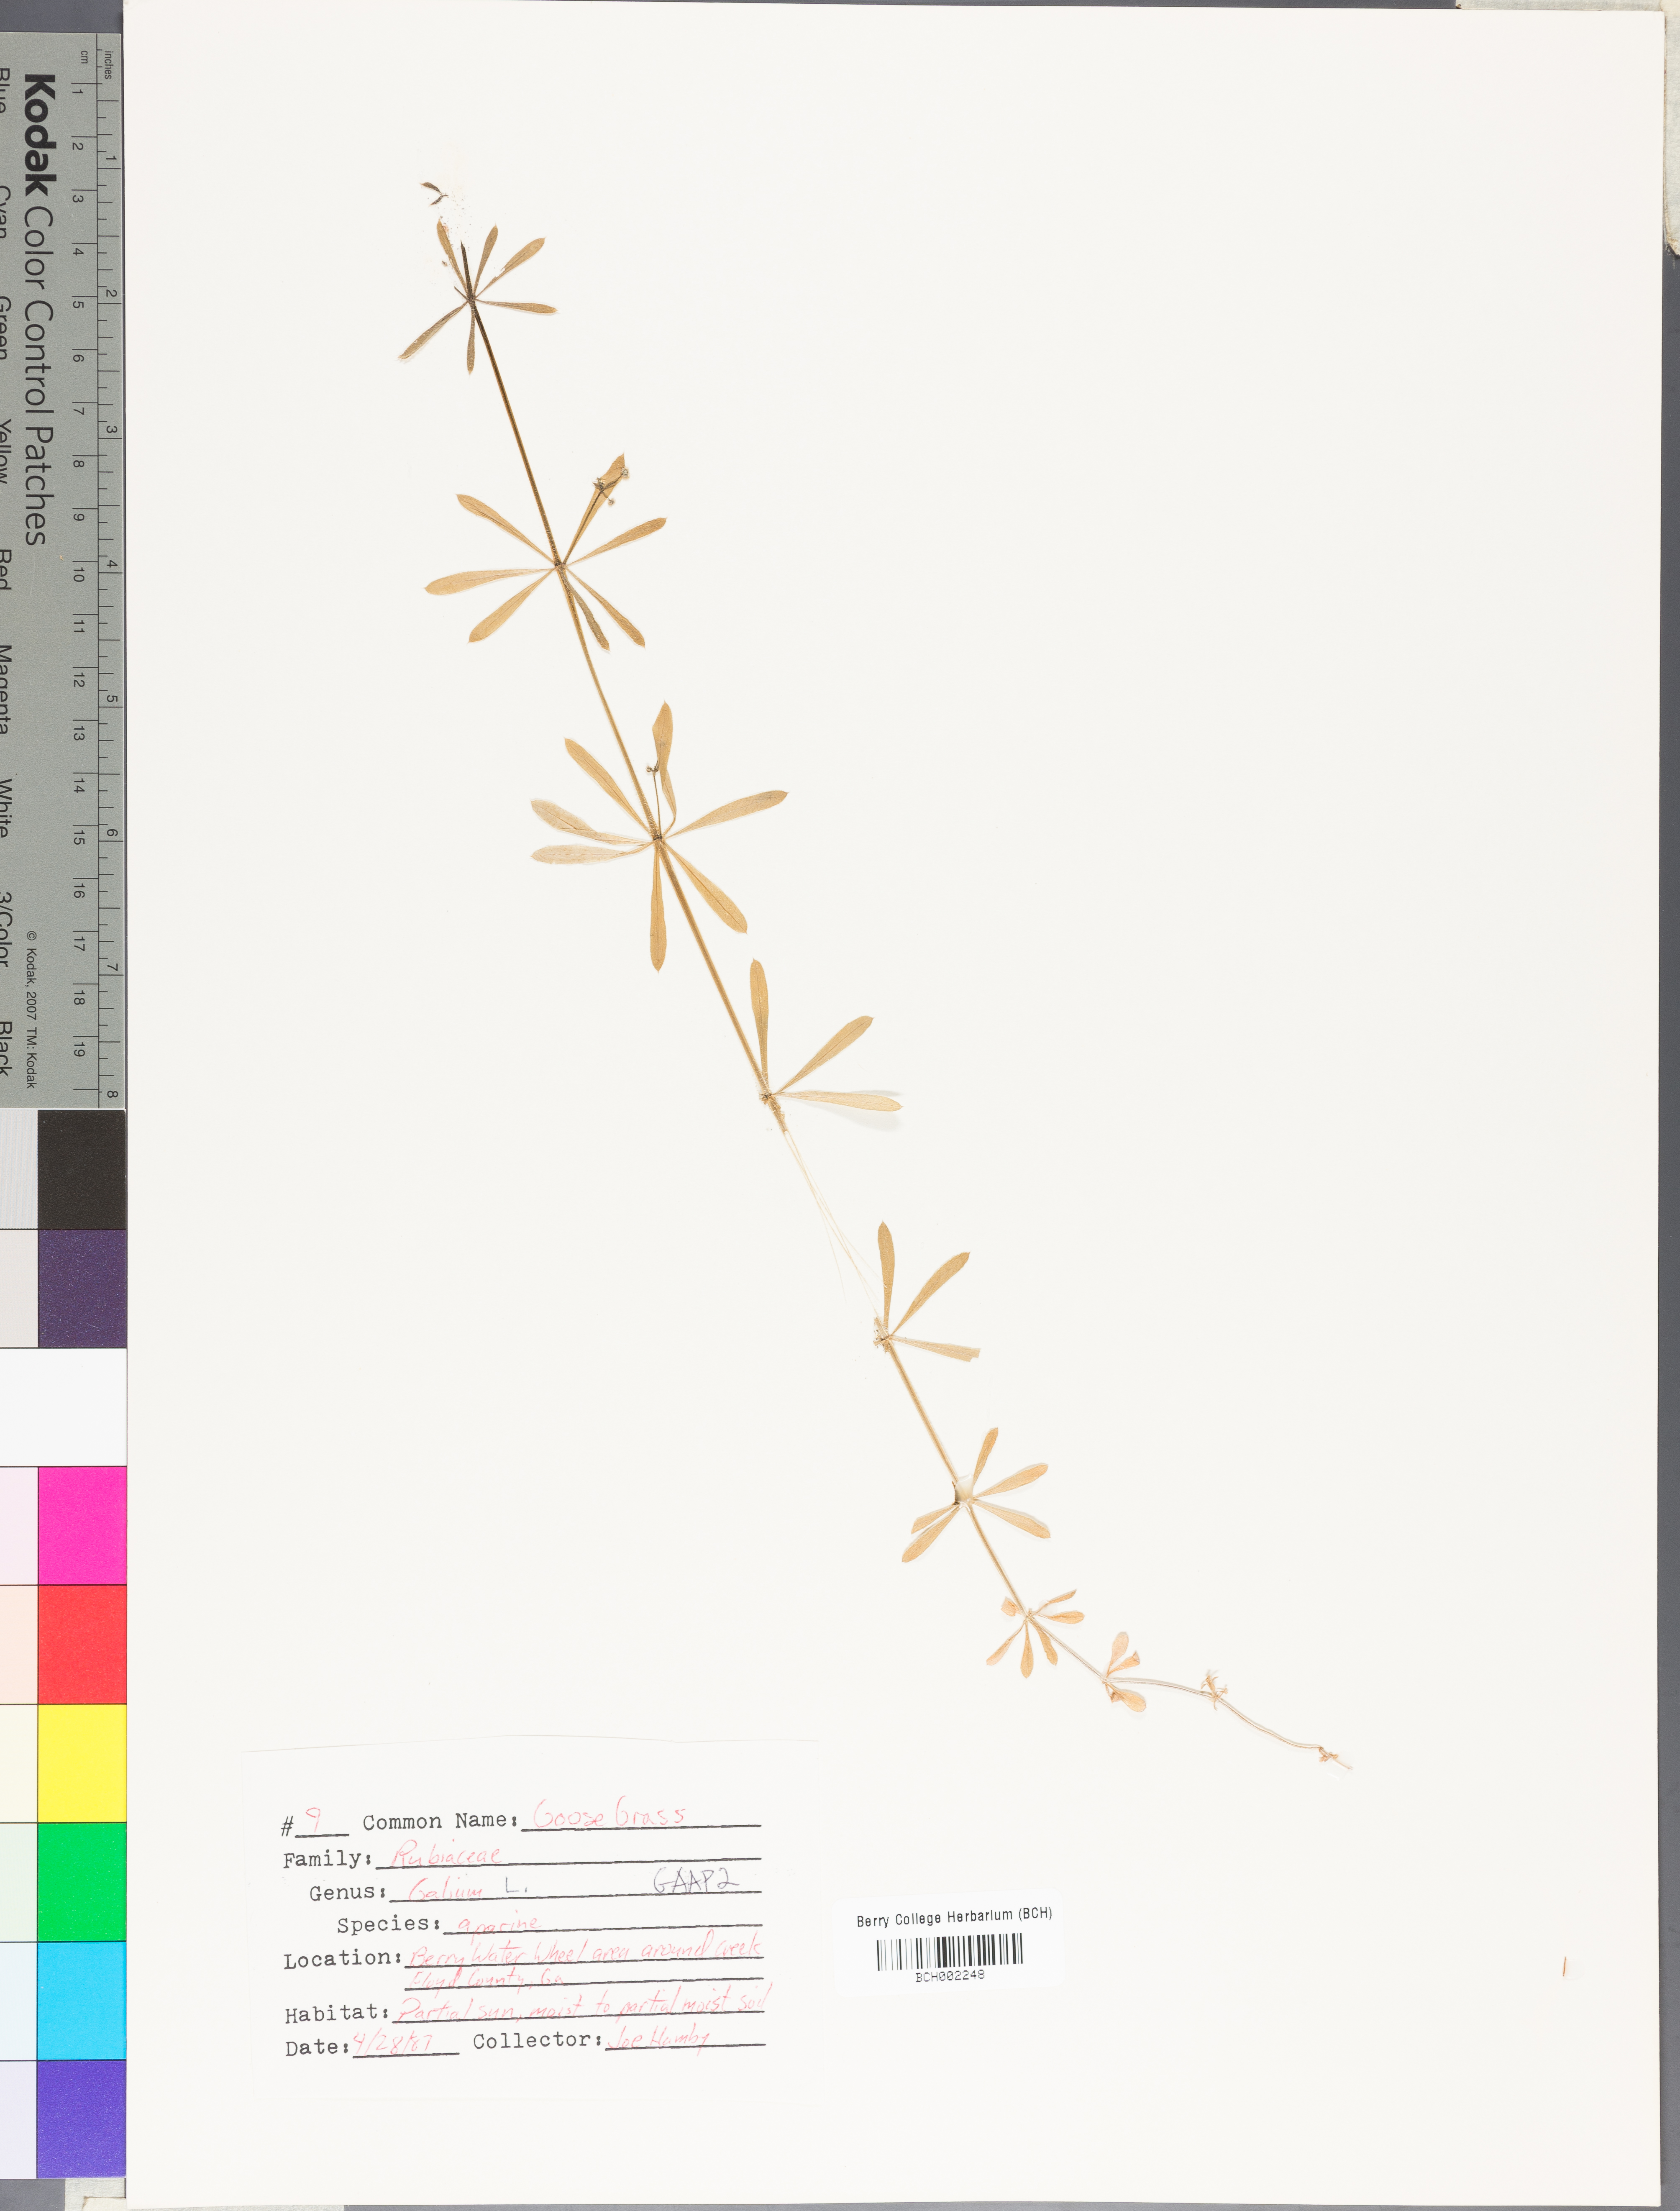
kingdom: Plantae
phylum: Tracheophyta
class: Magnoliopsida
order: Gentianales
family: Rubiaceae
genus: Galium
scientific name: Galium aparine
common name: Cleavers
